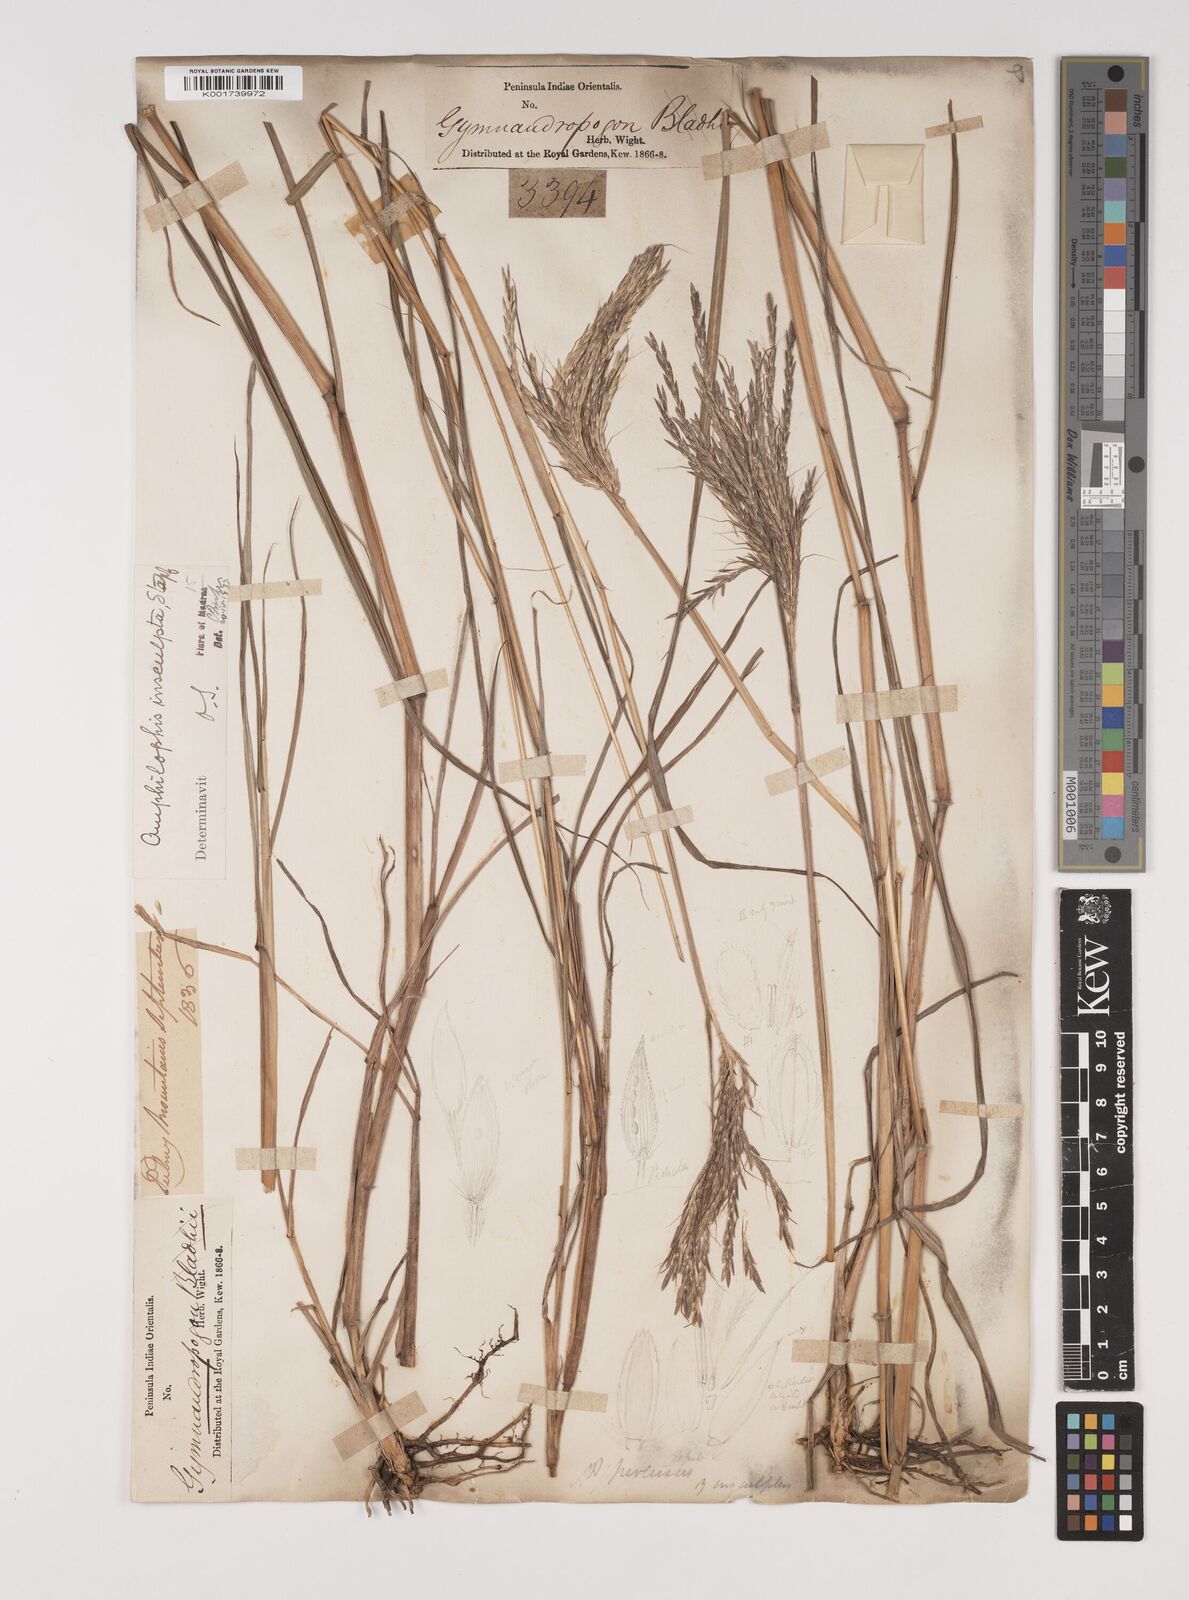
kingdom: Plantae
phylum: Tracheophyta
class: Liliopsida
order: Poales
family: Poaceae
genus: Bothriochloa
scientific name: Bothriochloa insculpta
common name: Creeping-bluegrass
